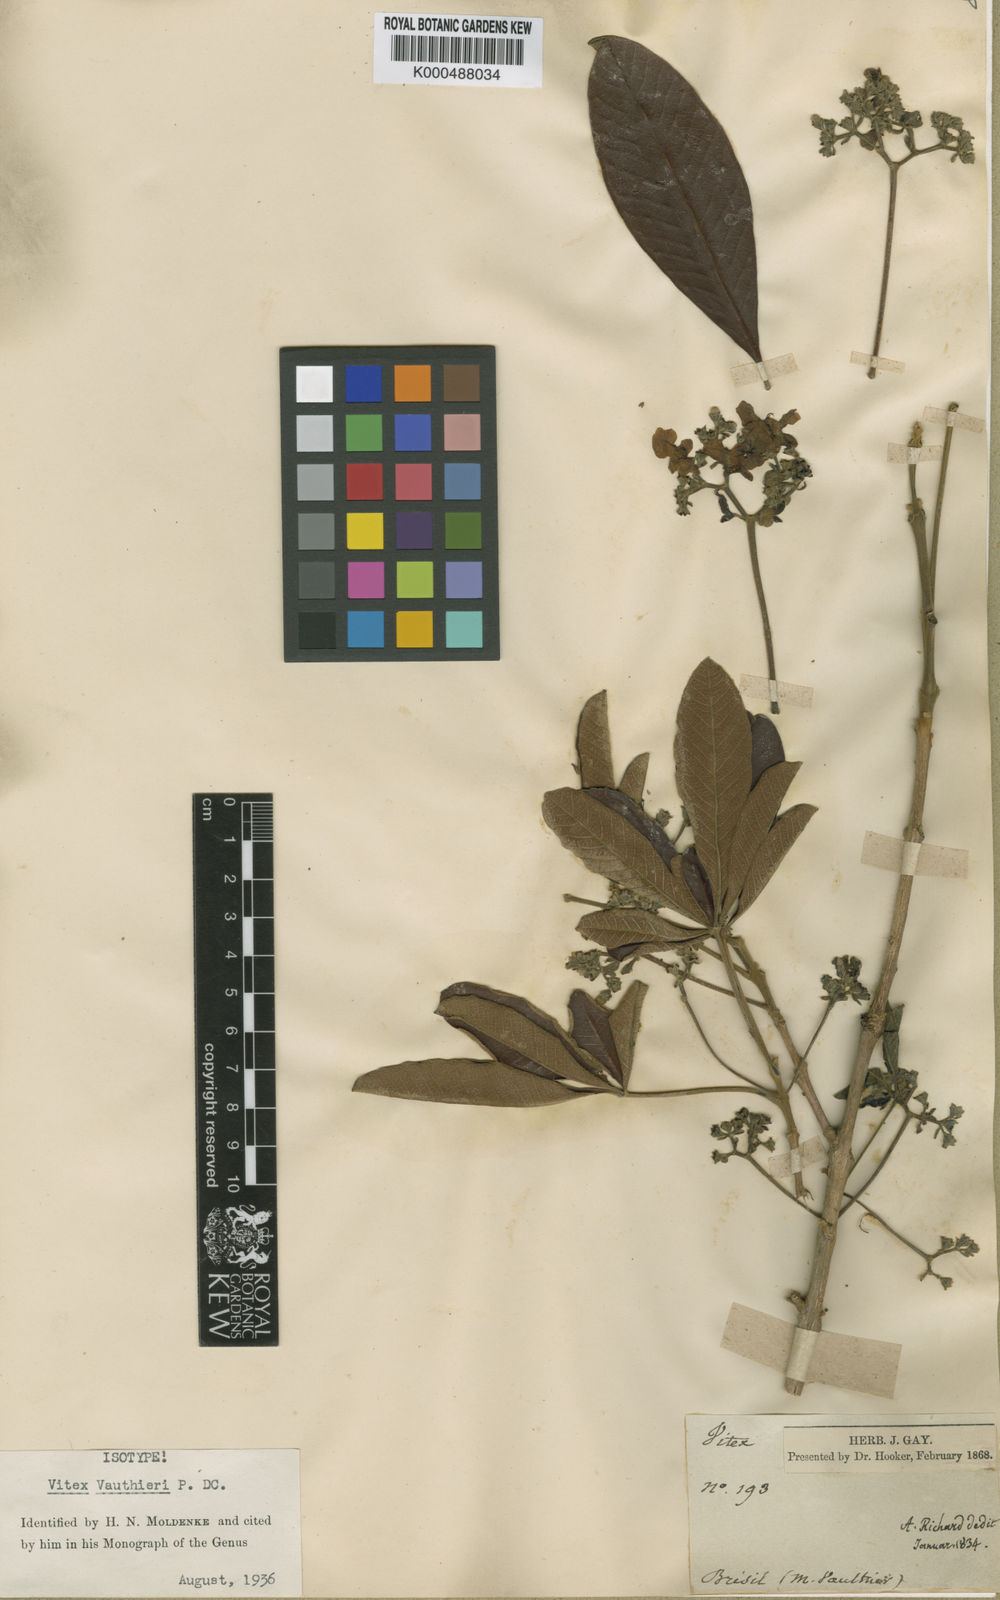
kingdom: Plantae
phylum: Tracheophyta
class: Magnoliopsida
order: Lamiales
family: Lamiaceae
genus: Vitex
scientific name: Vitex vauthieri
